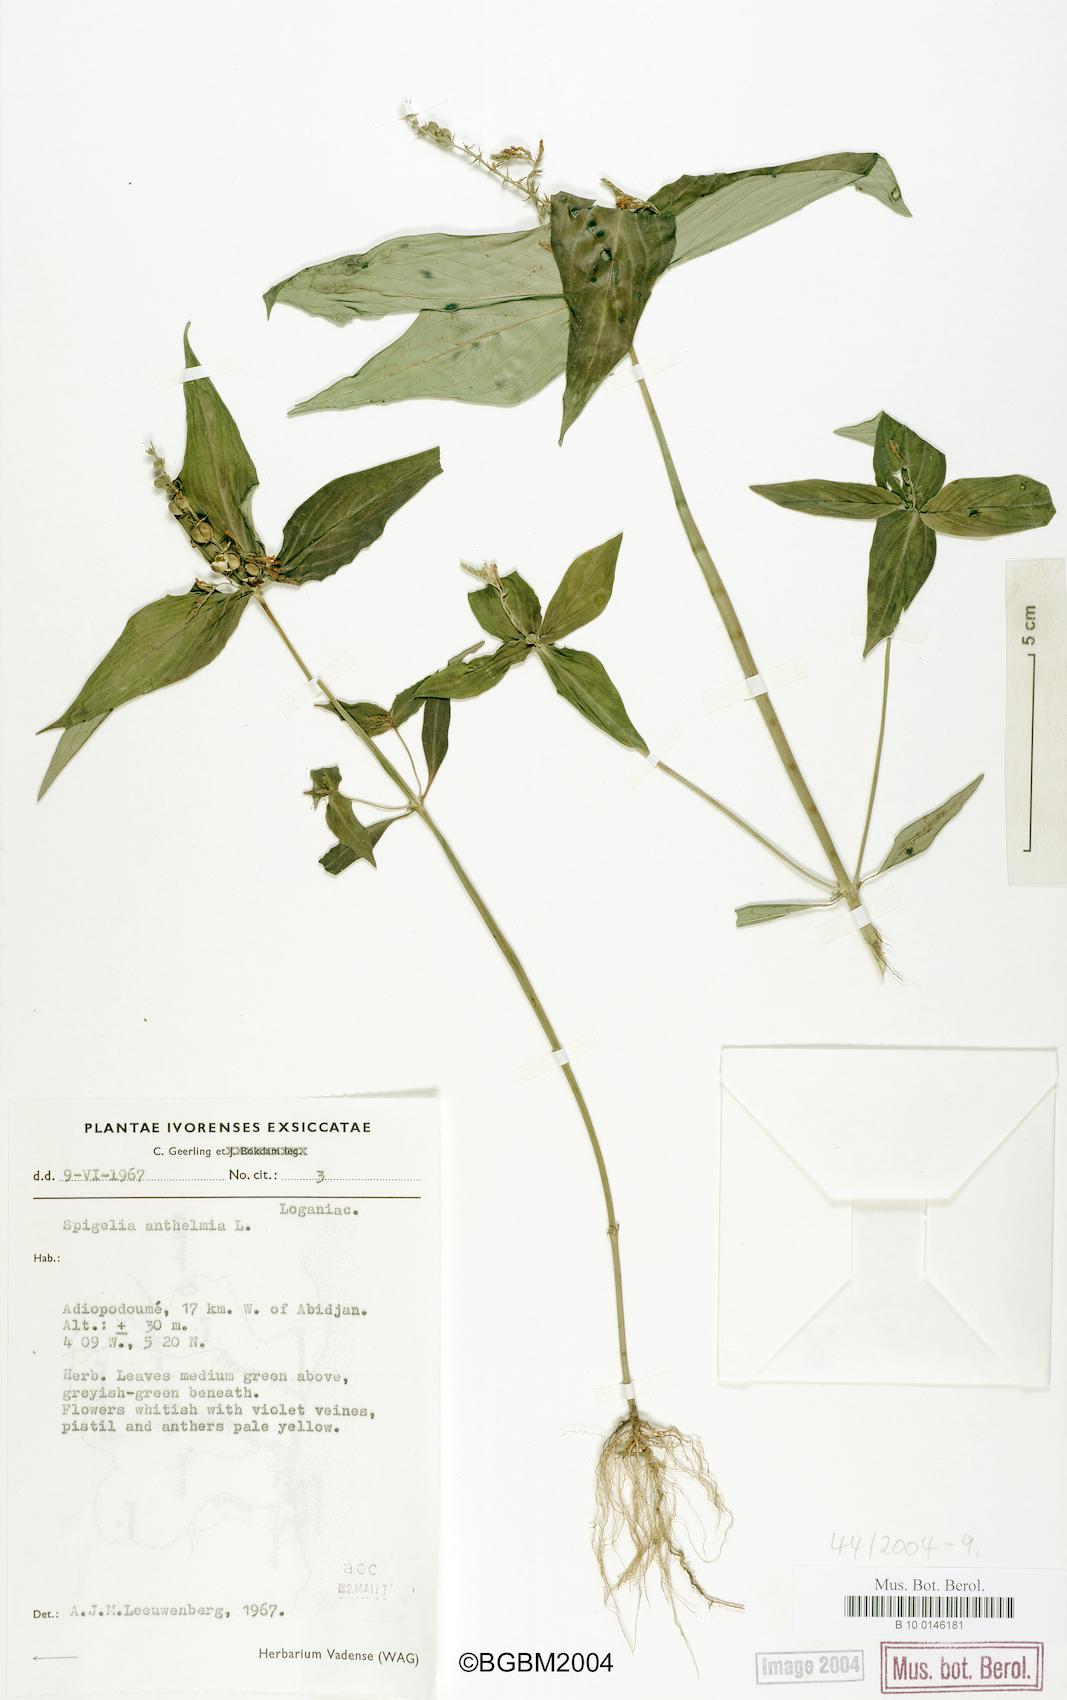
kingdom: Plantae
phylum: Tracheophyta
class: Magnoliopsida
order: Gentianales
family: Loganiaceae
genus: Spigelia
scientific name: Spigelia anthelmia
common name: West indian-pink
